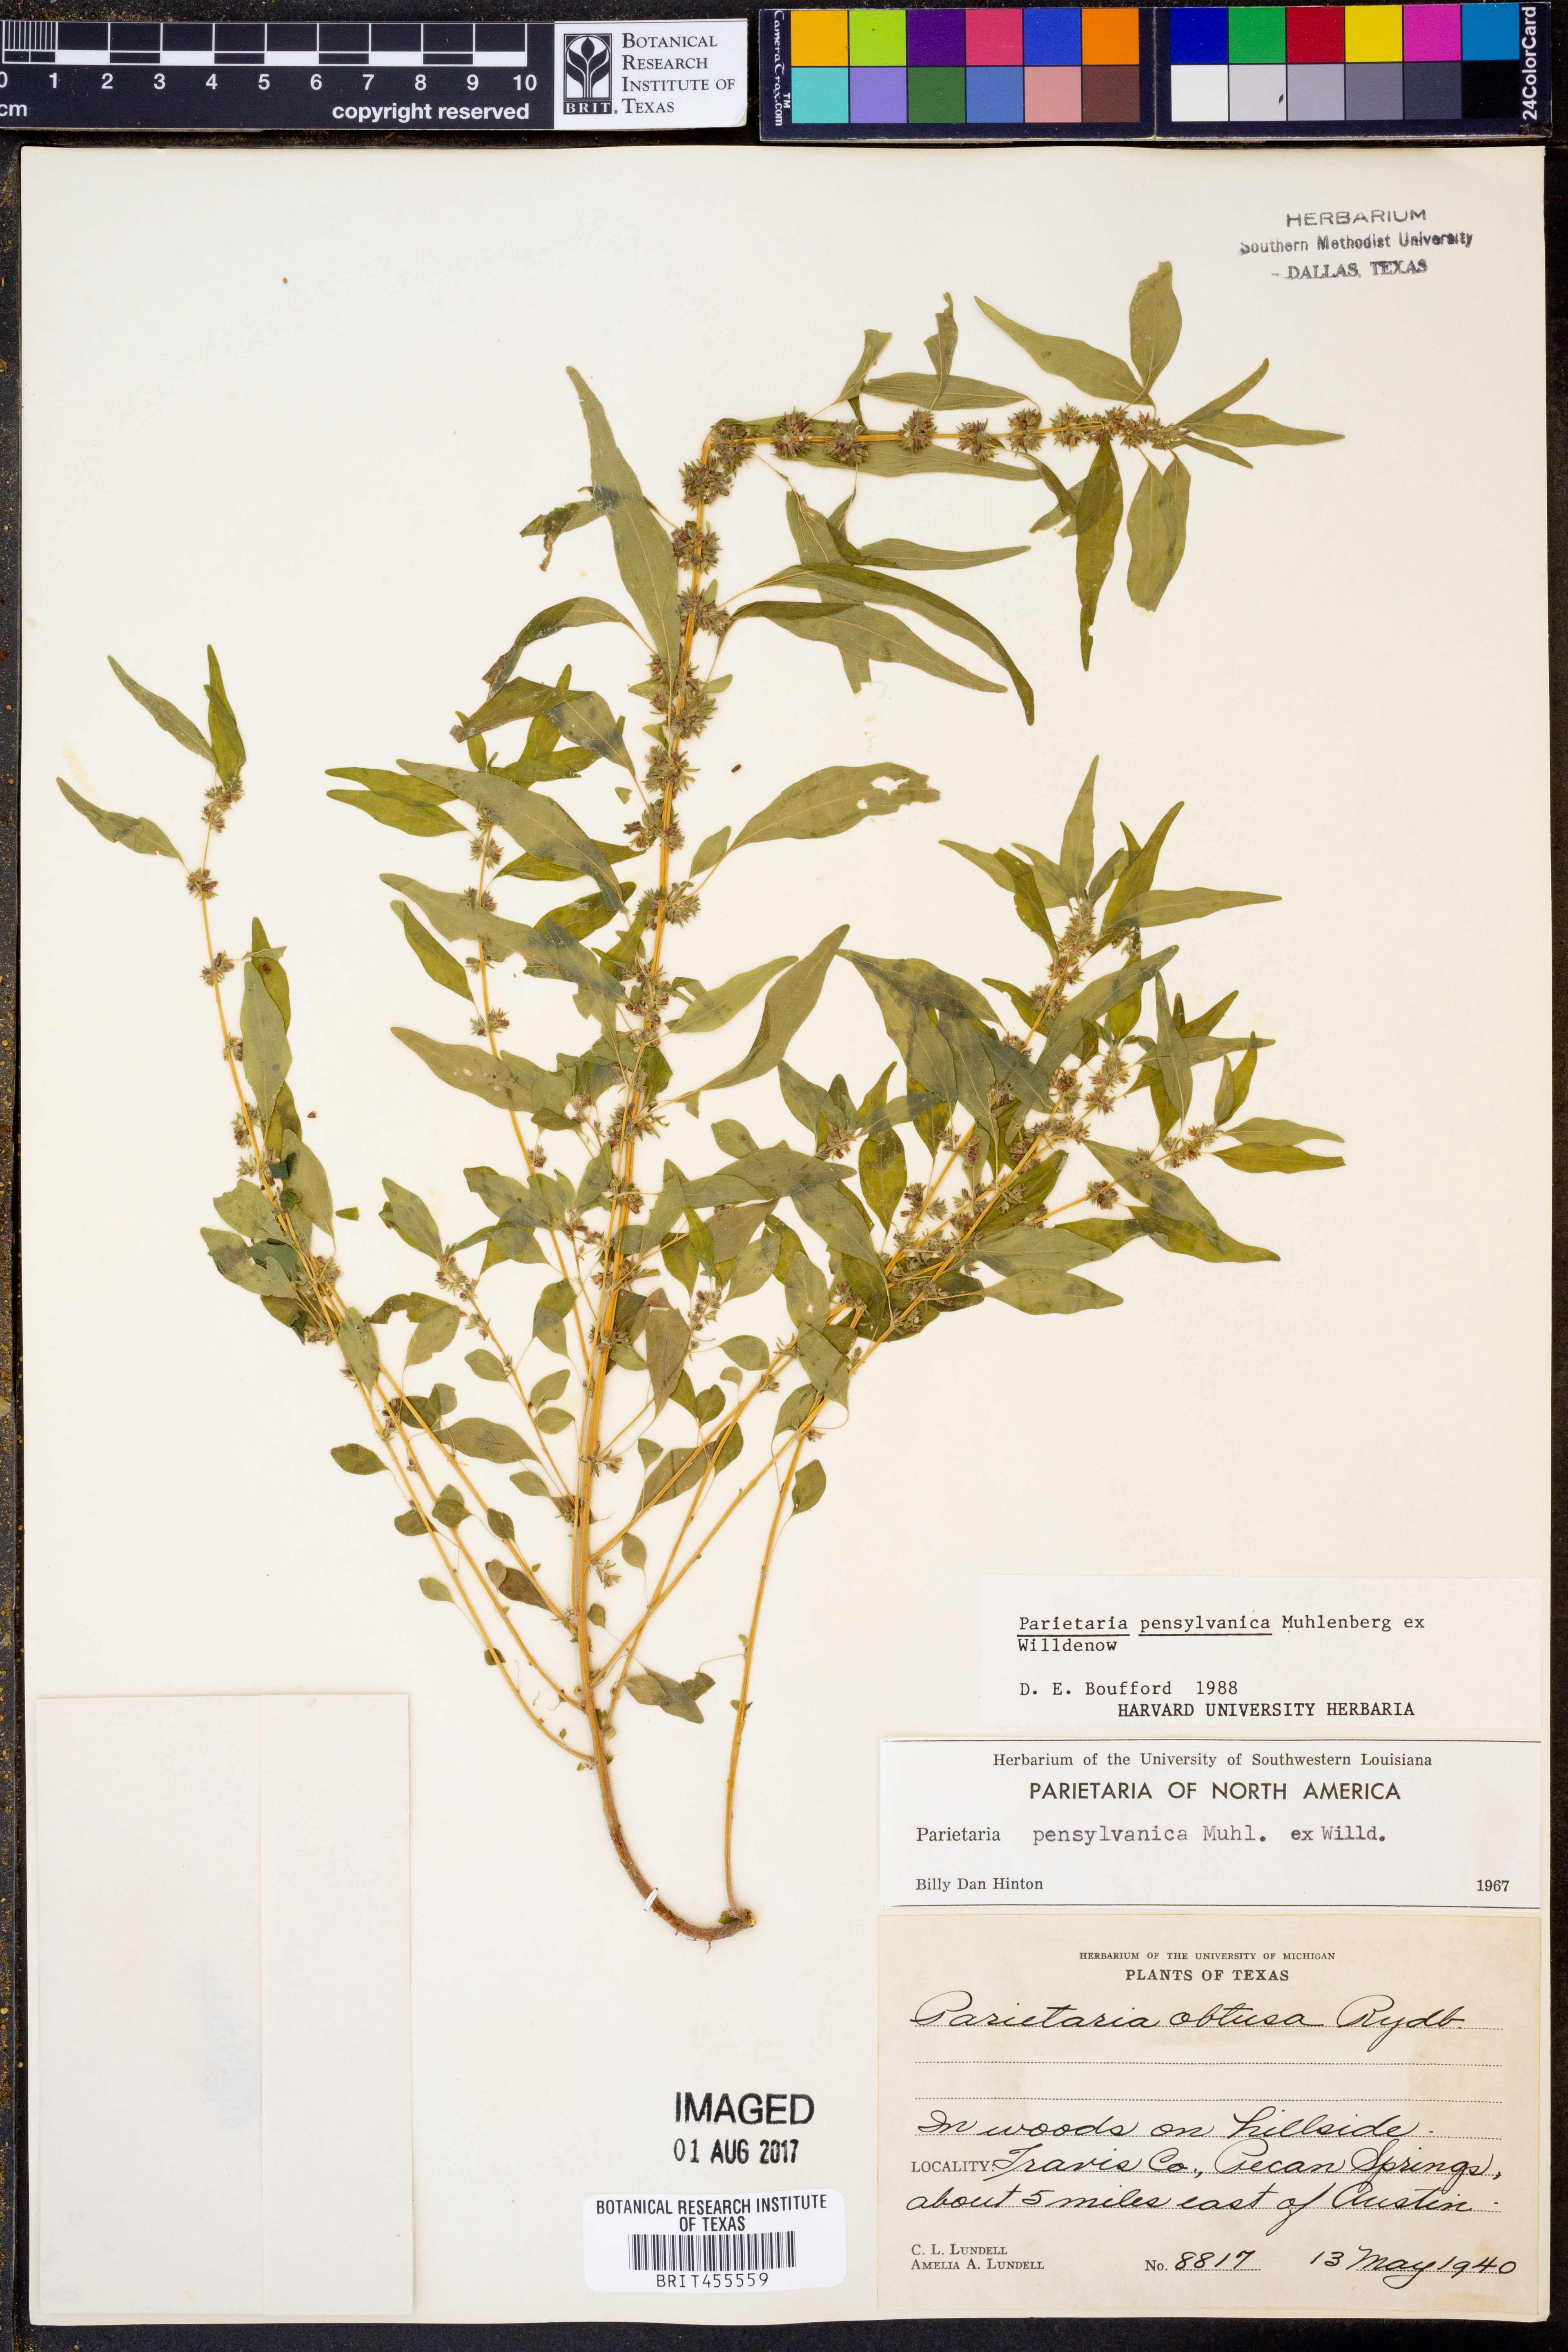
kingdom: Plantae
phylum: Tracheophyta
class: Magnoliopsida
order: Rosales
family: Urticaceae
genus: Parietaria
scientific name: Parietaria pensylvanica
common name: Pennsylvania pellitory
